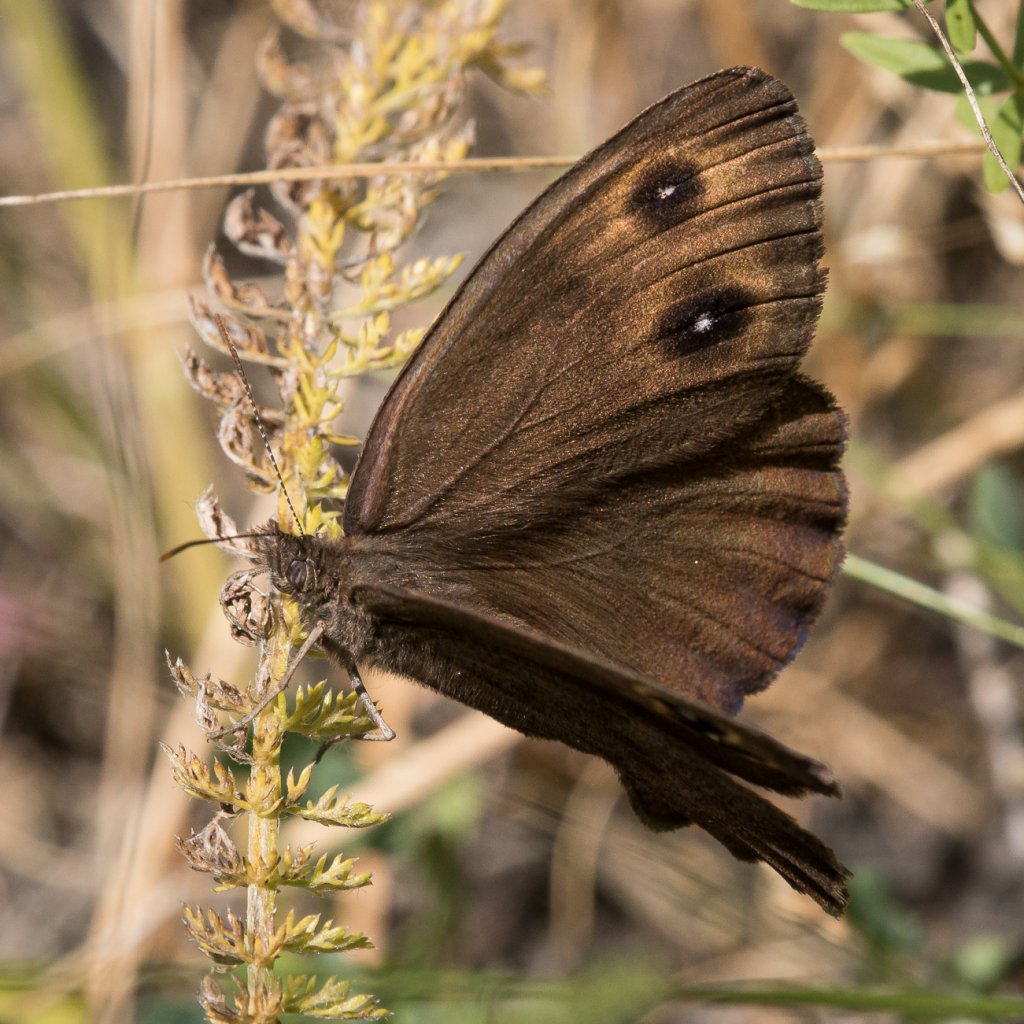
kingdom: Animalia
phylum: Arthropoda
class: Insecta
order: Lepidoptera
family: Nymphalidae
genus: Cercyonis
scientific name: Cercyonis pegala
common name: Common Wood-Nymph
